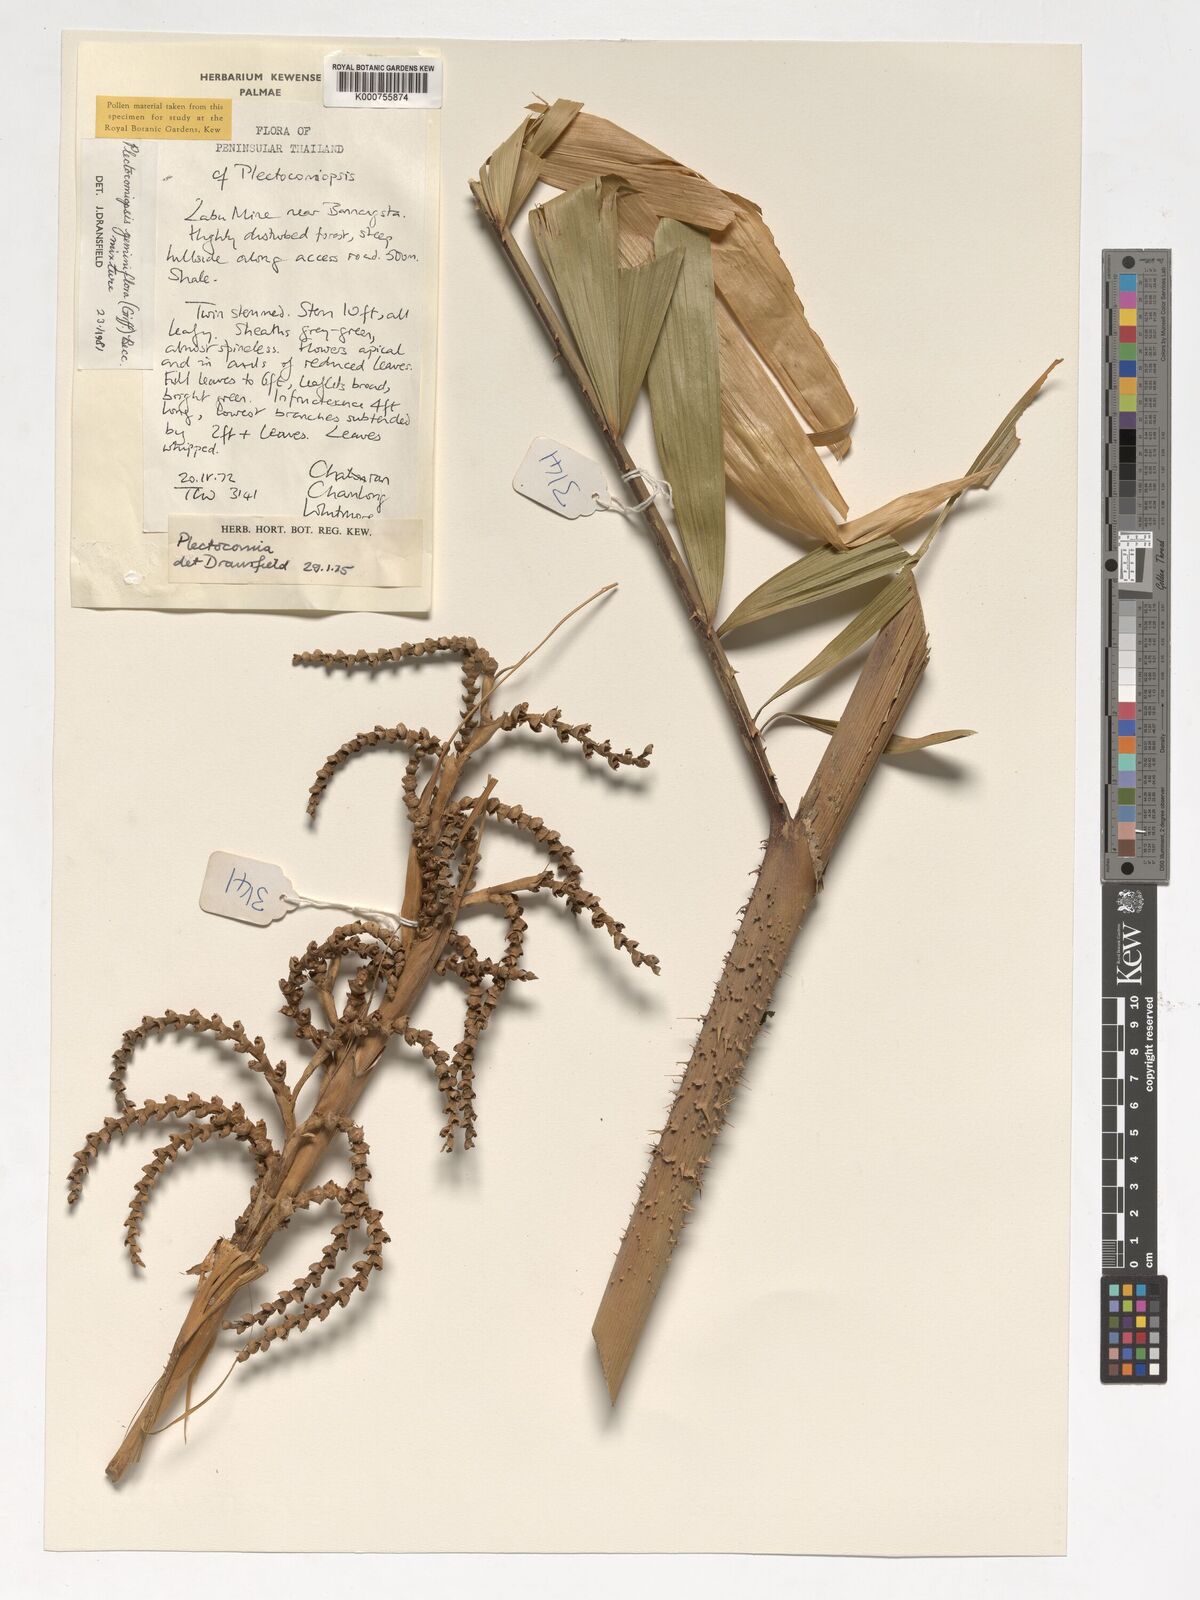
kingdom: Plantae
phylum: Tracheophyta
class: Liliopsida
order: Arecales
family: Arecaceae
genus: Plectocomiopsis
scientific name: Plectocomiopsis geminiflora
